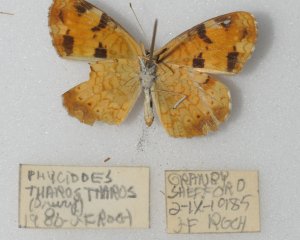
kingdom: Animalia
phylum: Arthropoda
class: Insecta
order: Lepidoptera
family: Nymphalidae
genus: Phyciodes
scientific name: Phyciodes tharos
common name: Northern Crescent
